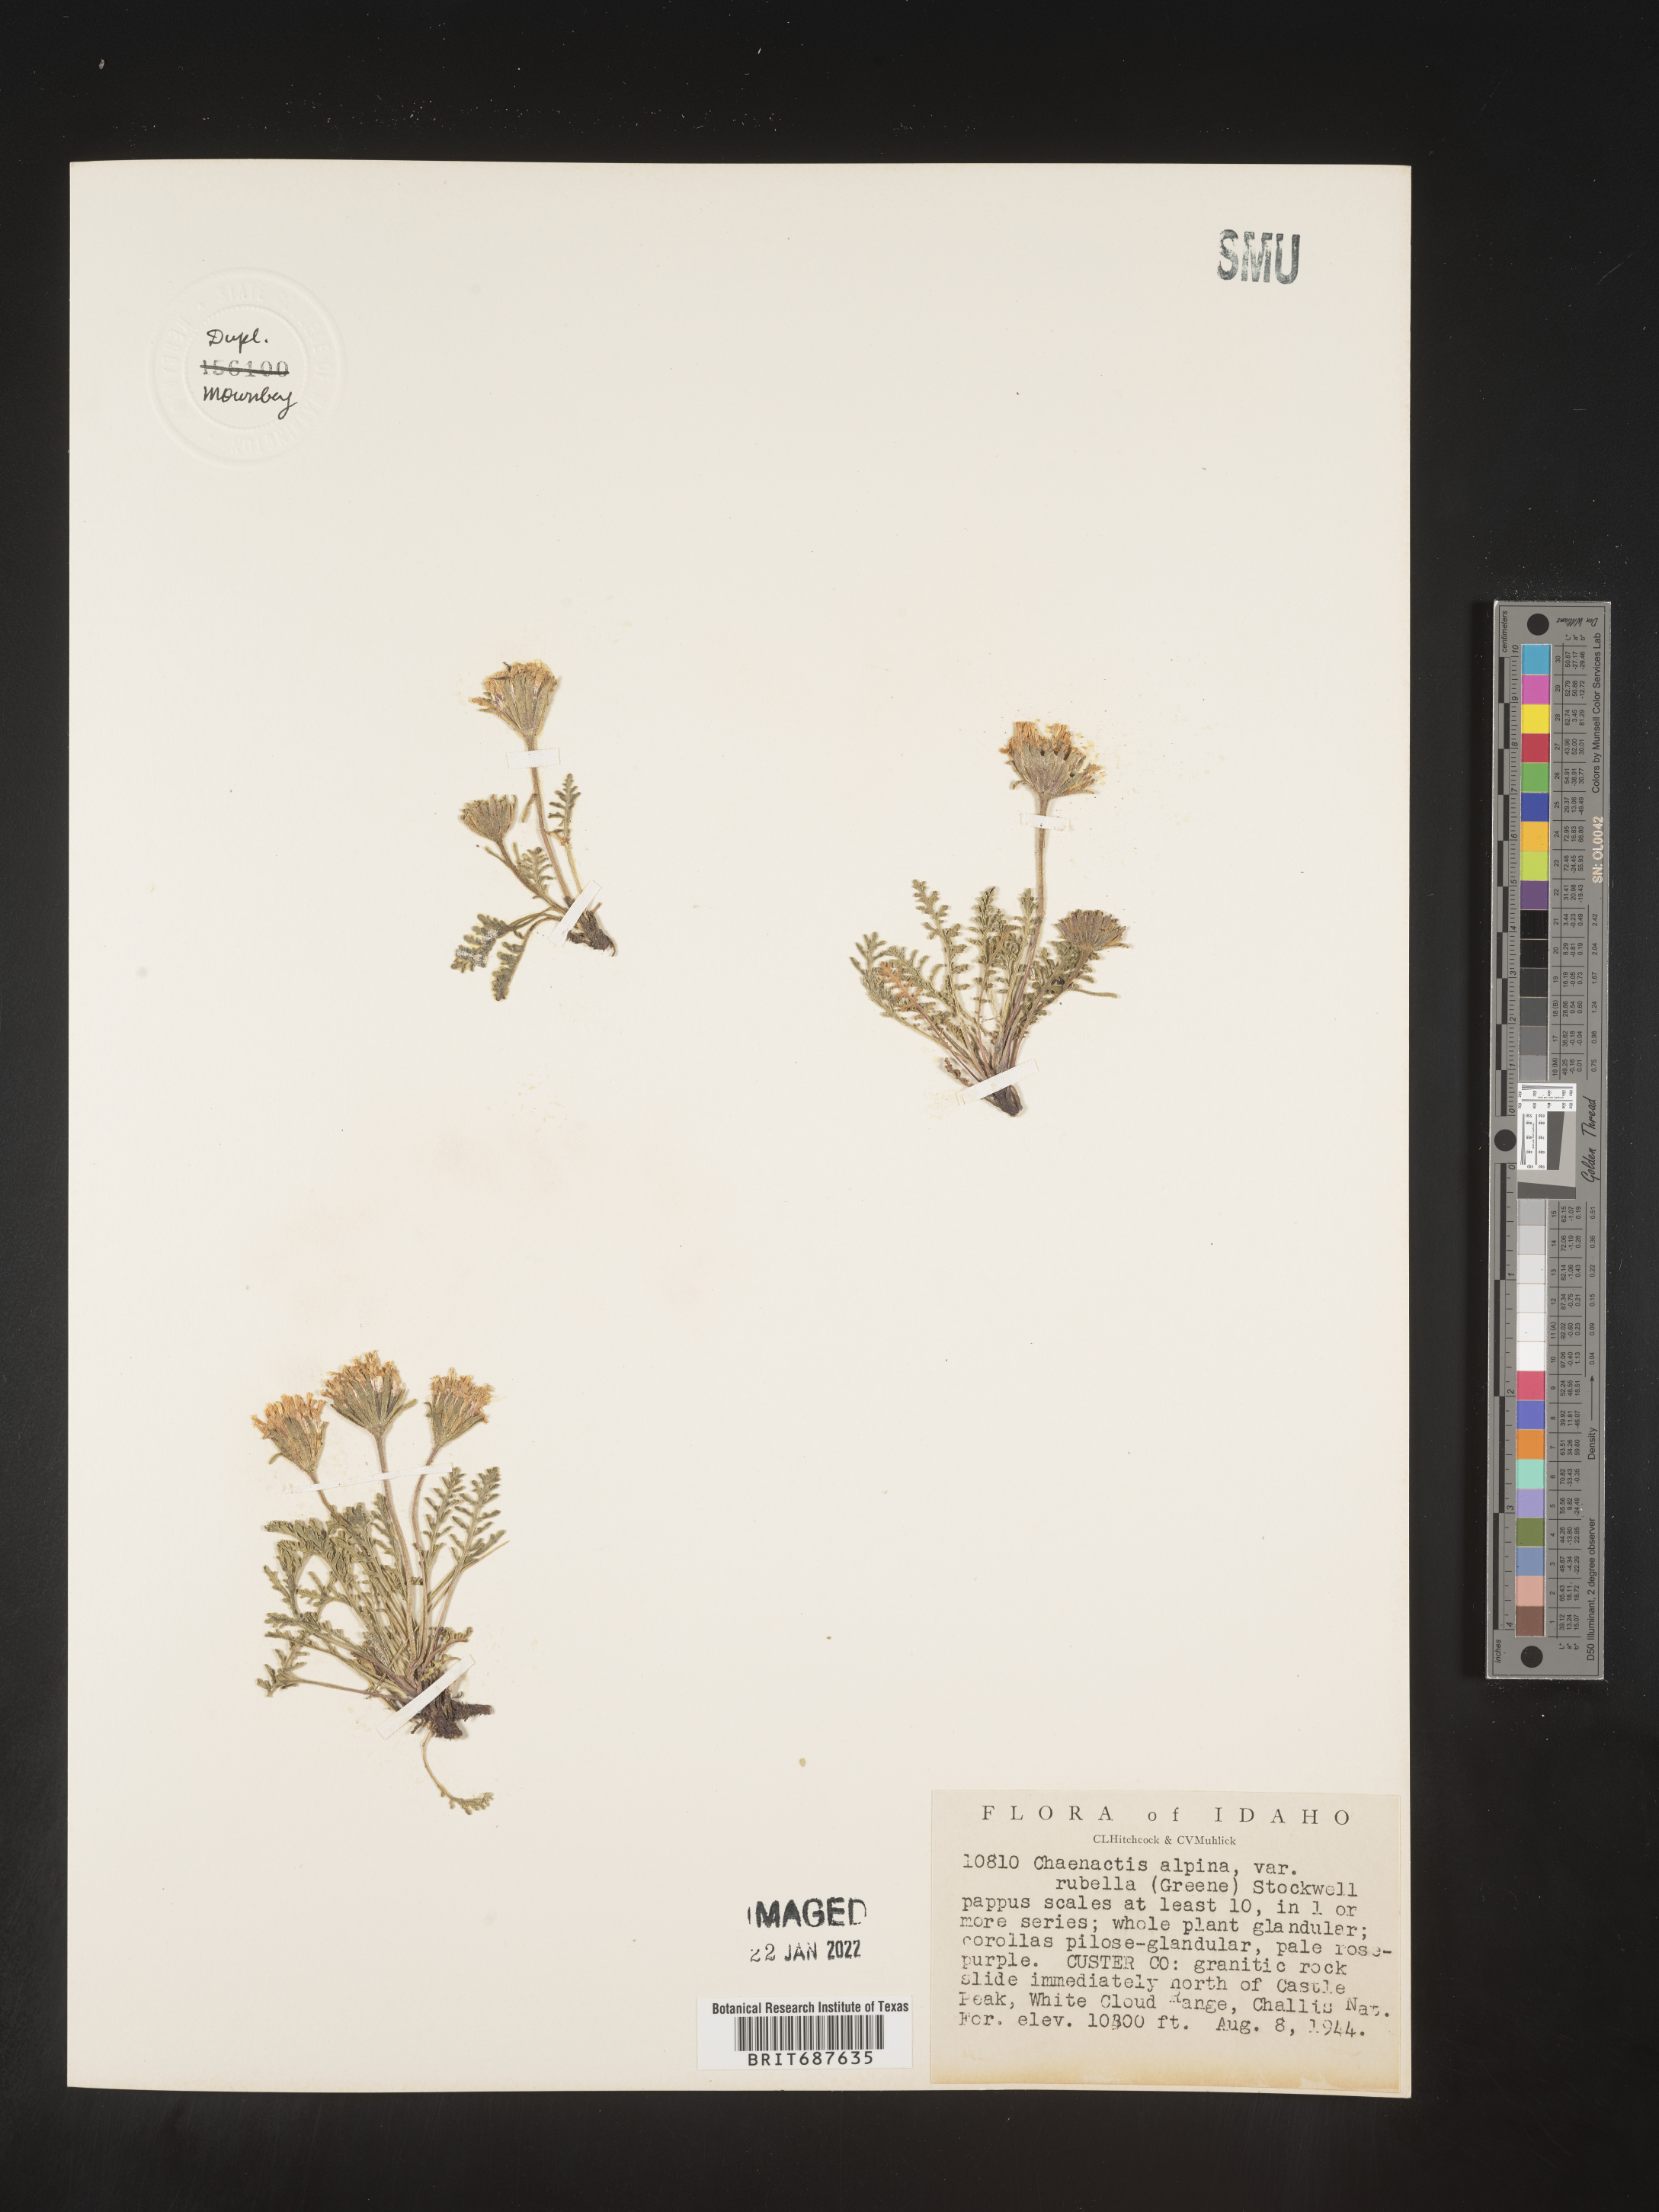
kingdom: Plantae
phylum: Tracheophyta
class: Magnoliopsida
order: Asterales
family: Asteraceae
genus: Chaenactis
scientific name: Chaenactis
